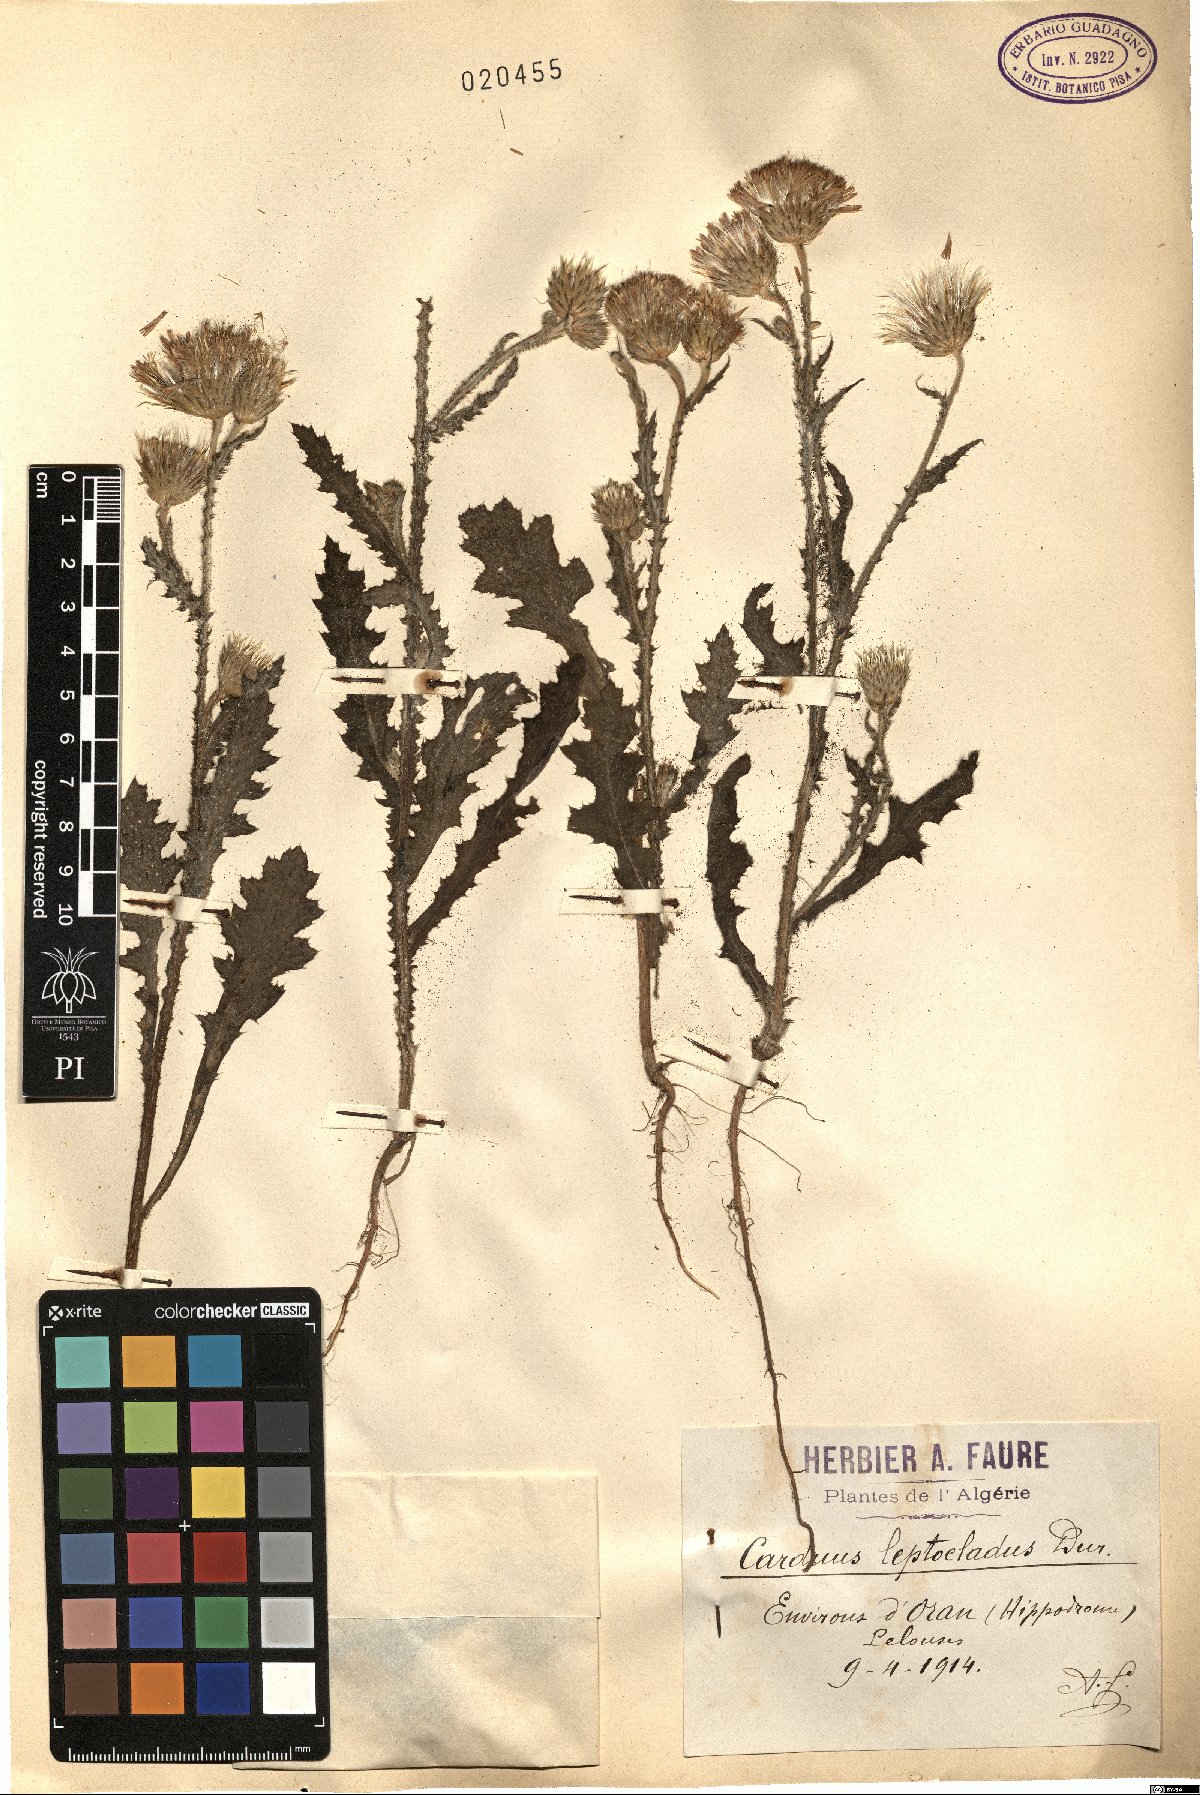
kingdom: Plantae
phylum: Tracheophyta
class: Magnoliopsida
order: Asterales
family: Asteraceae
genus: Carduus
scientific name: Carduus leptocladus
